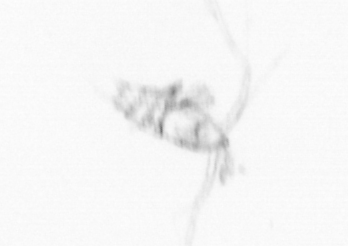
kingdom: Animalia
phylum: Arthropoda
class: Copepoda
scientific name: Copepoda
